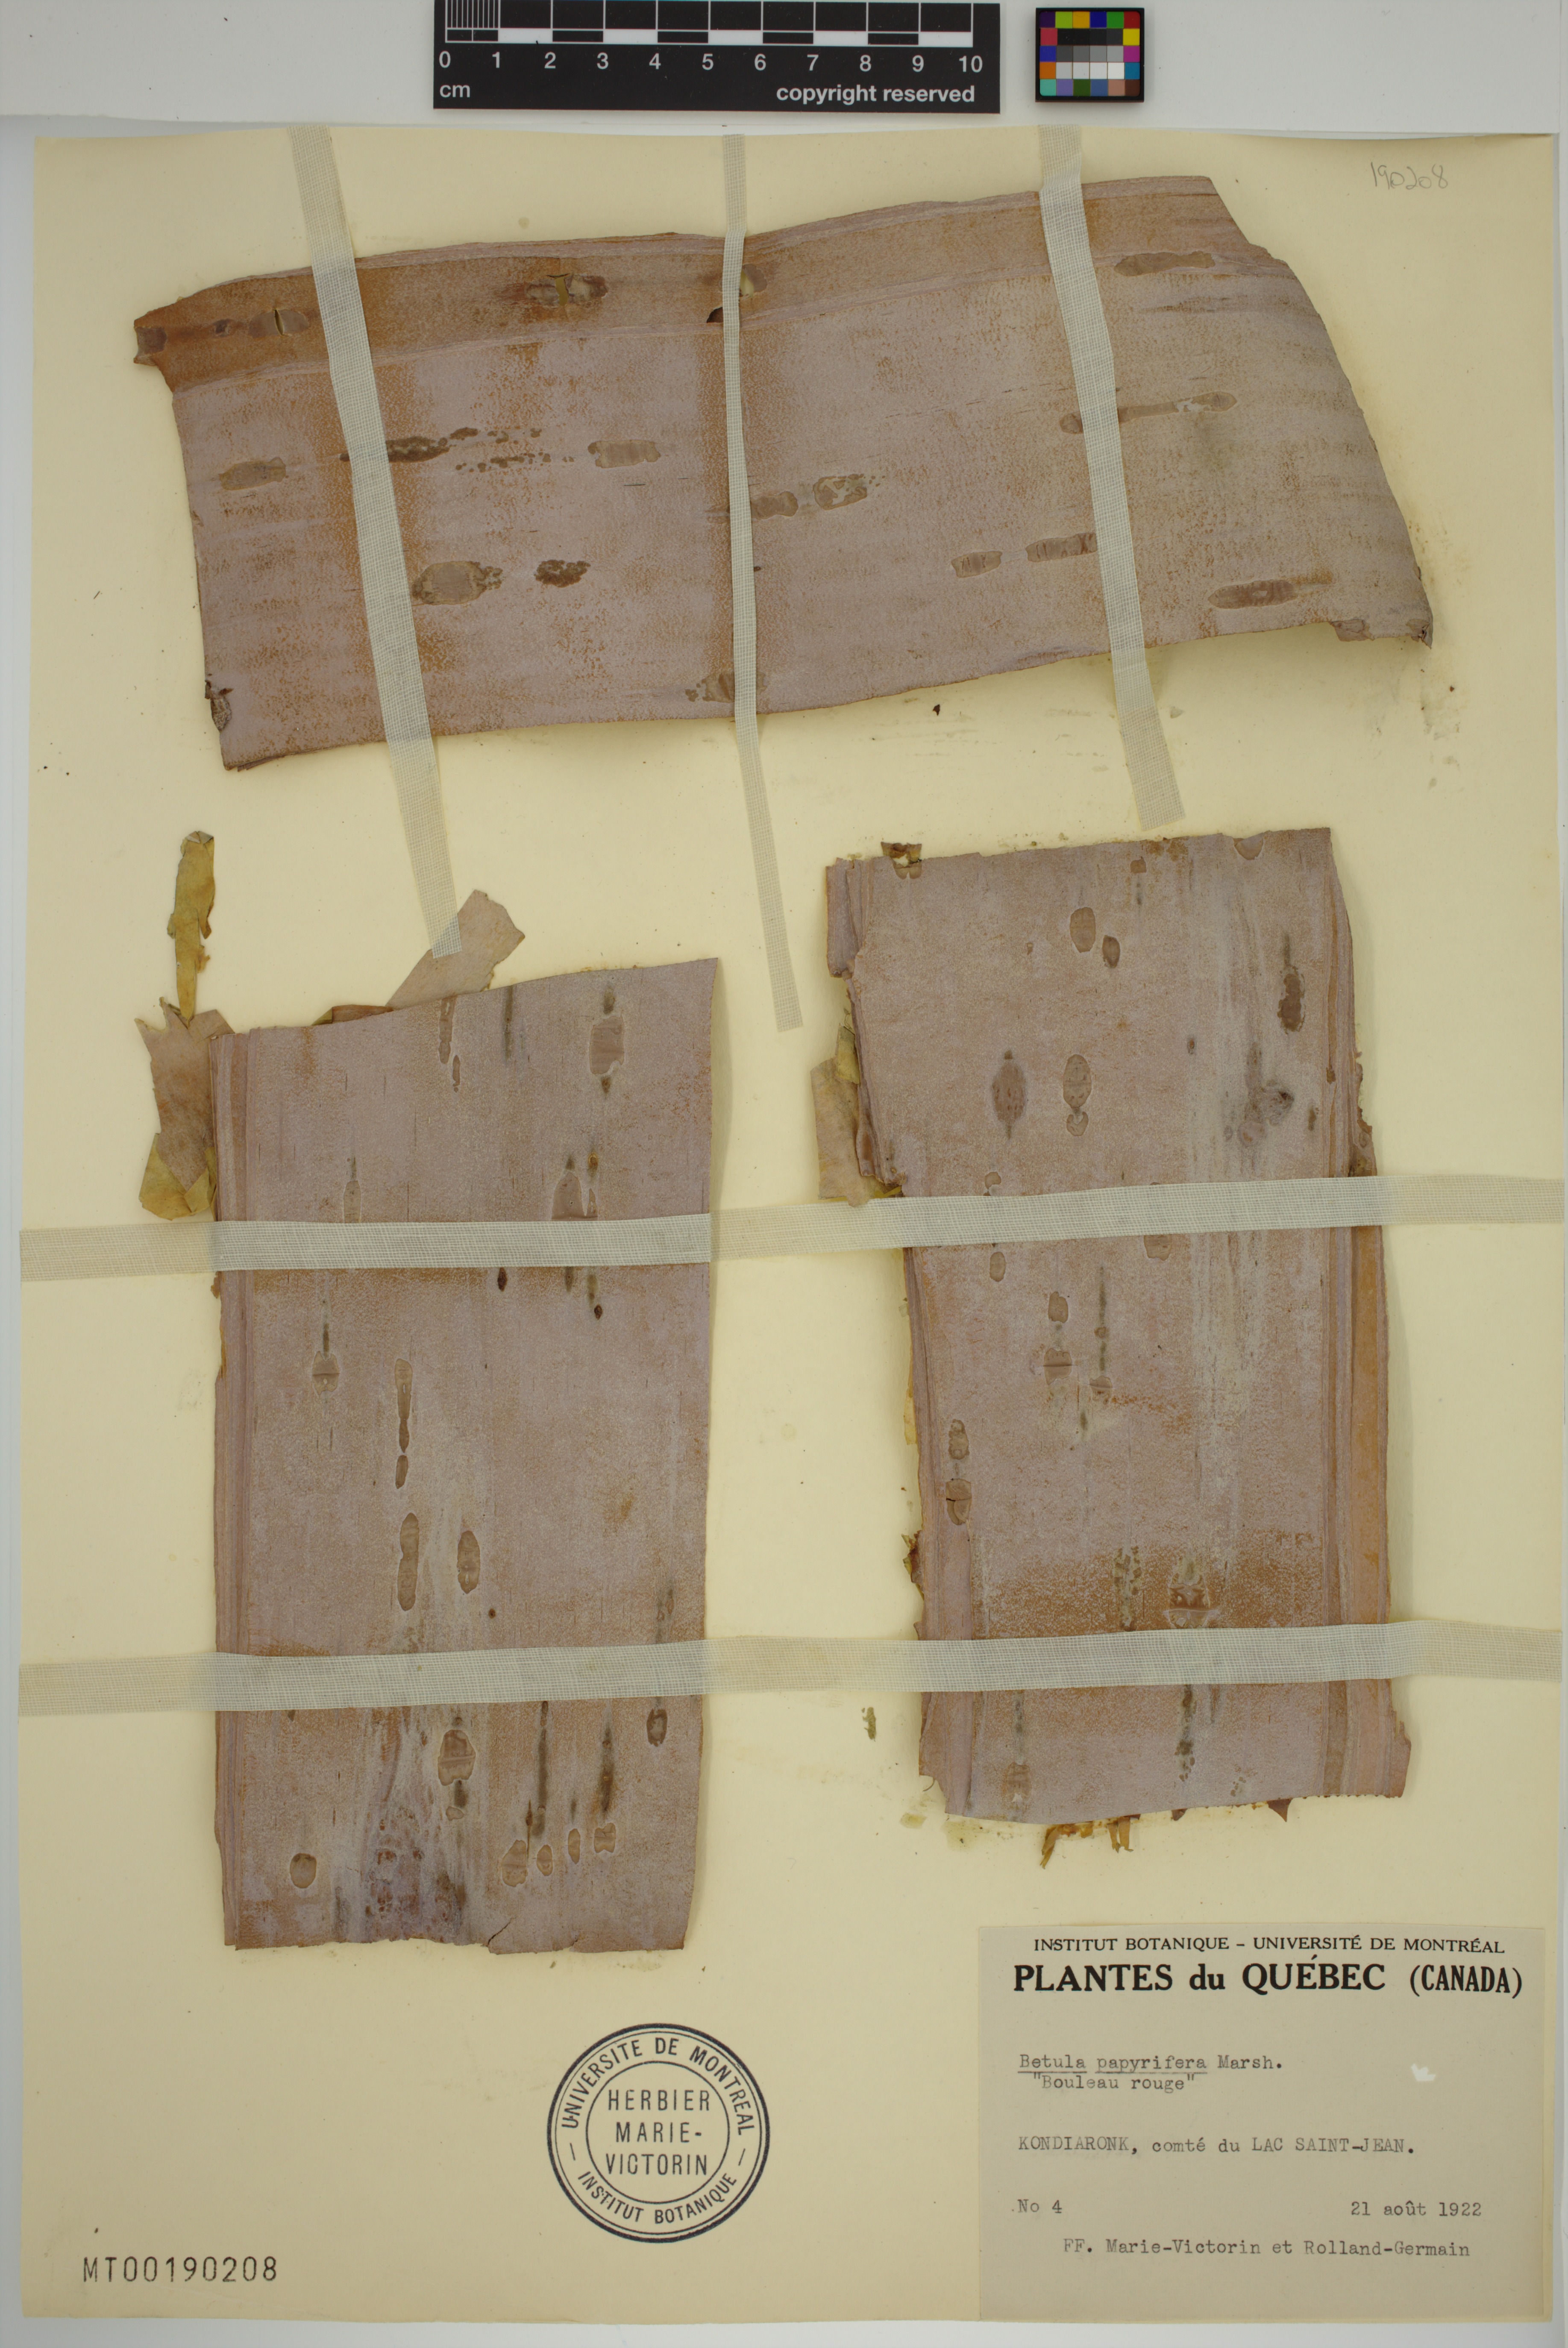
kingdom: Plantae
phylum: Tracheophyta
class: Magnoliopsida
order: Fagales
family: Betulaceae
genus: Betula
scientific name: Betula papyrifera
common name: Paper birch
